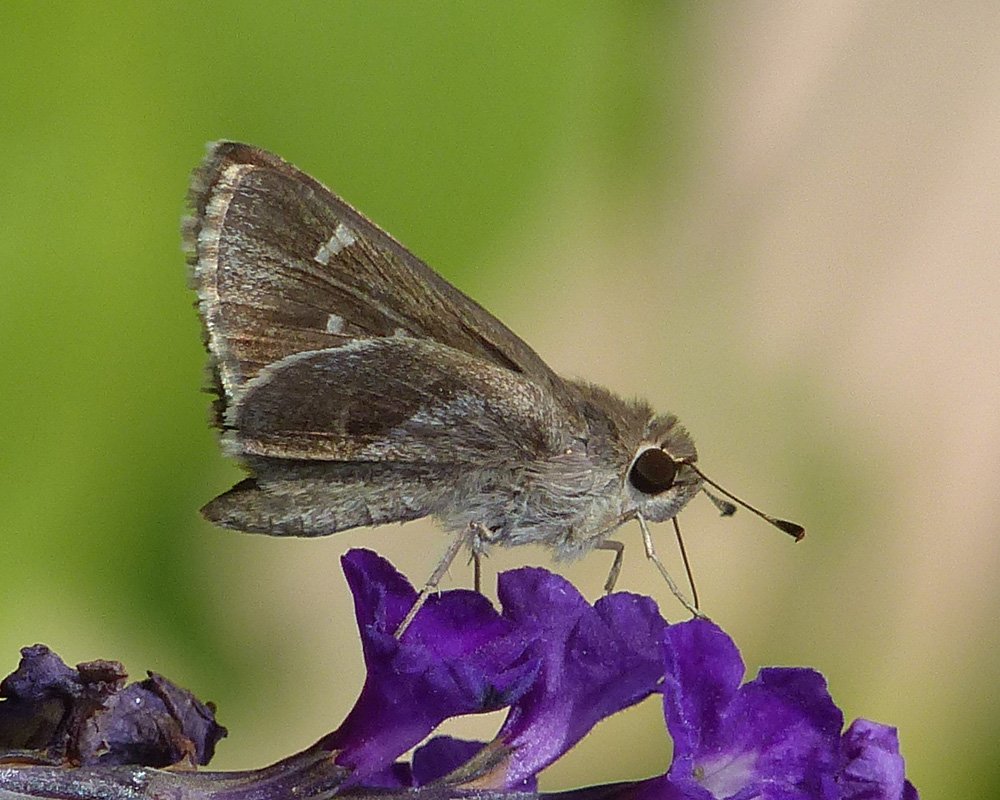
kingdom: Animalia
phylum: Arthropoda
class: Insecta
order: Lepidoptera
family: Hesperiidae
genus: Lerodea
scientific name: Lerodea arabus
